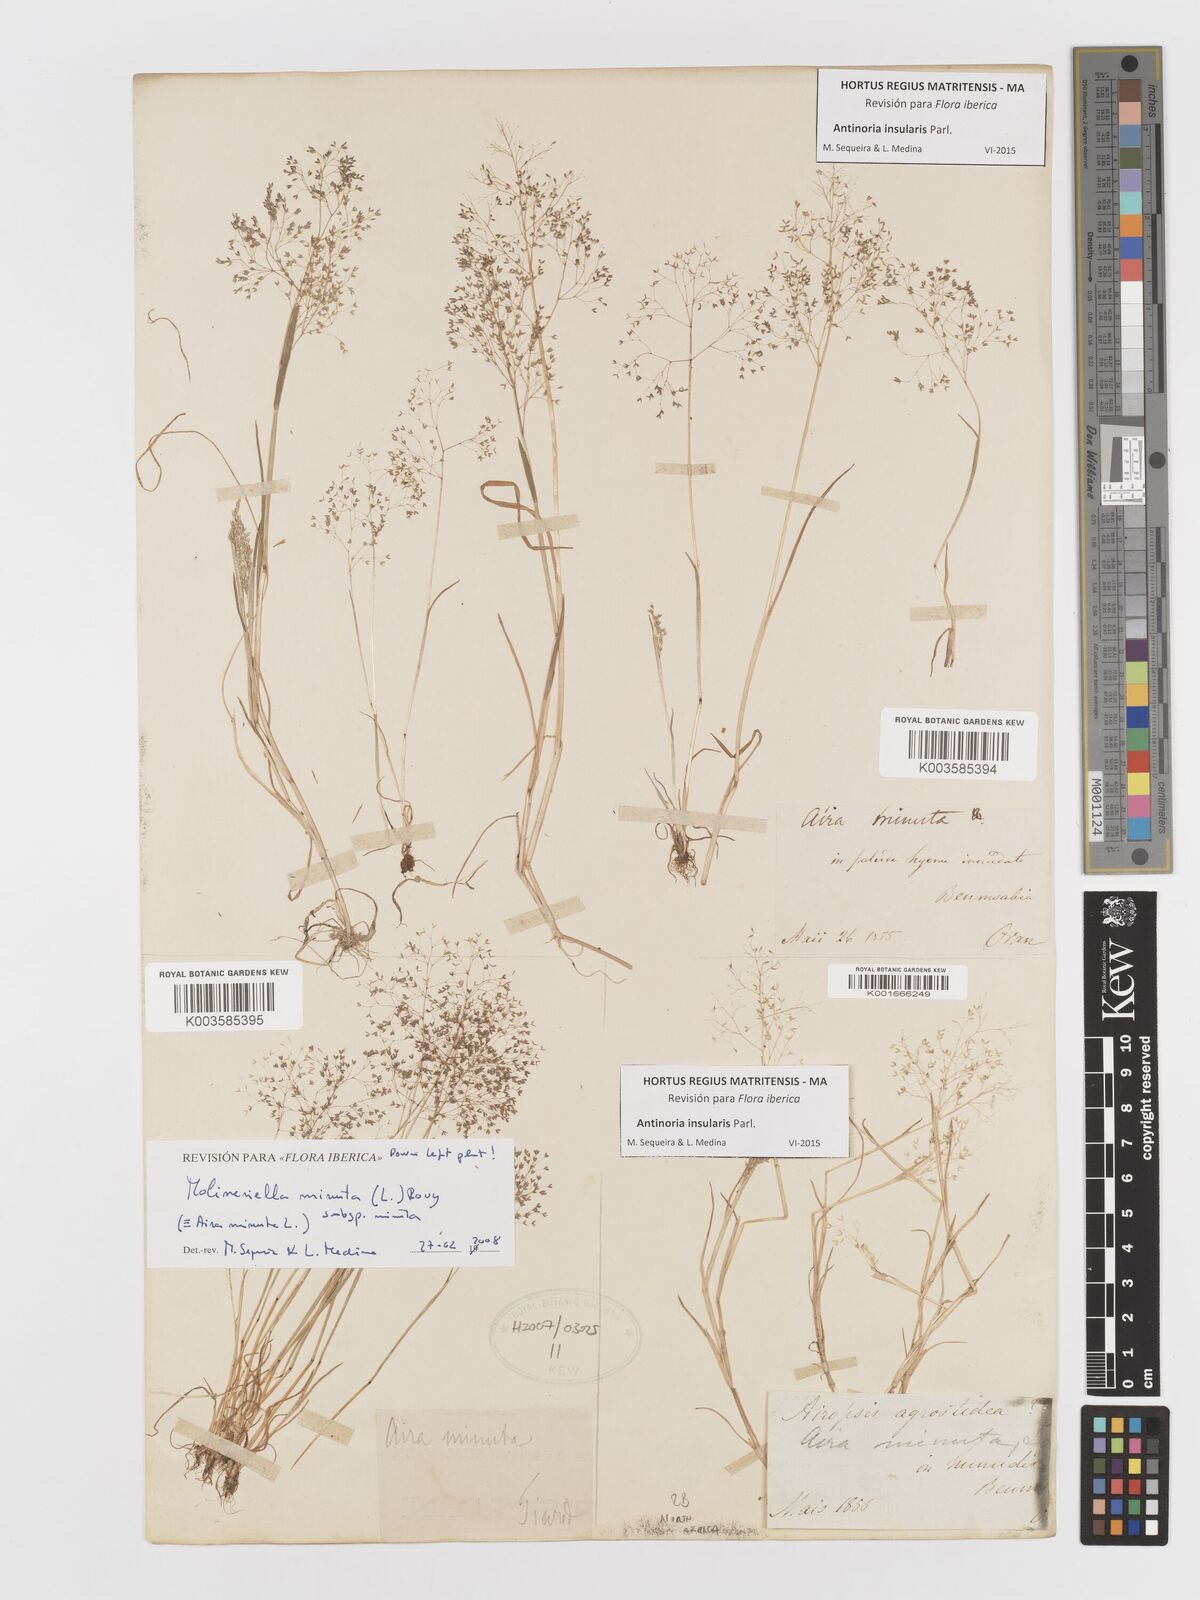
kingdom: Plantae
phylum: Tracheophyta
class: Liliopsida
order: Poales
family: Poaceae
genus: Antinoria
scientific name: Antinoria insularis
